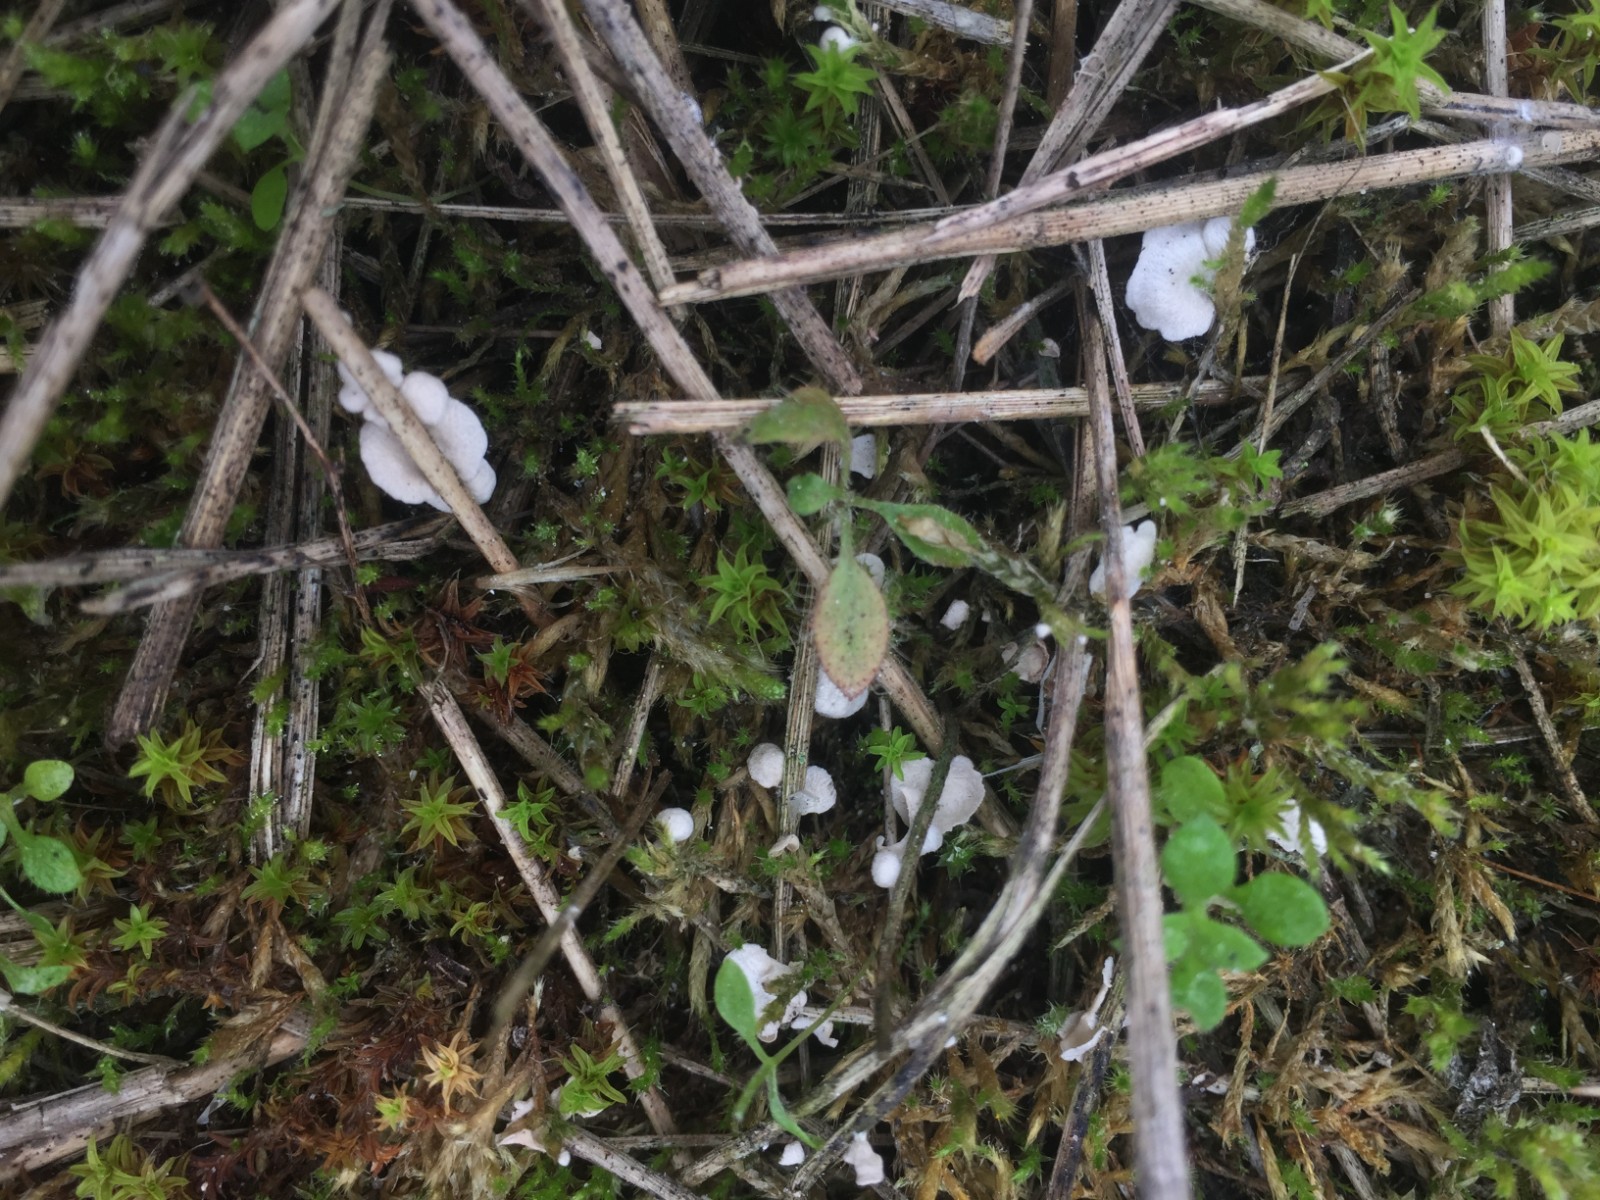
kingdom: Fungi
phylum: Basidiomycota
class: Agaricomycetes
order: Agaricales
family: Hygrophoraceae
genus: Arrhenia
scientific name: Arrhenia retiruga
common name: lille fontænehat
